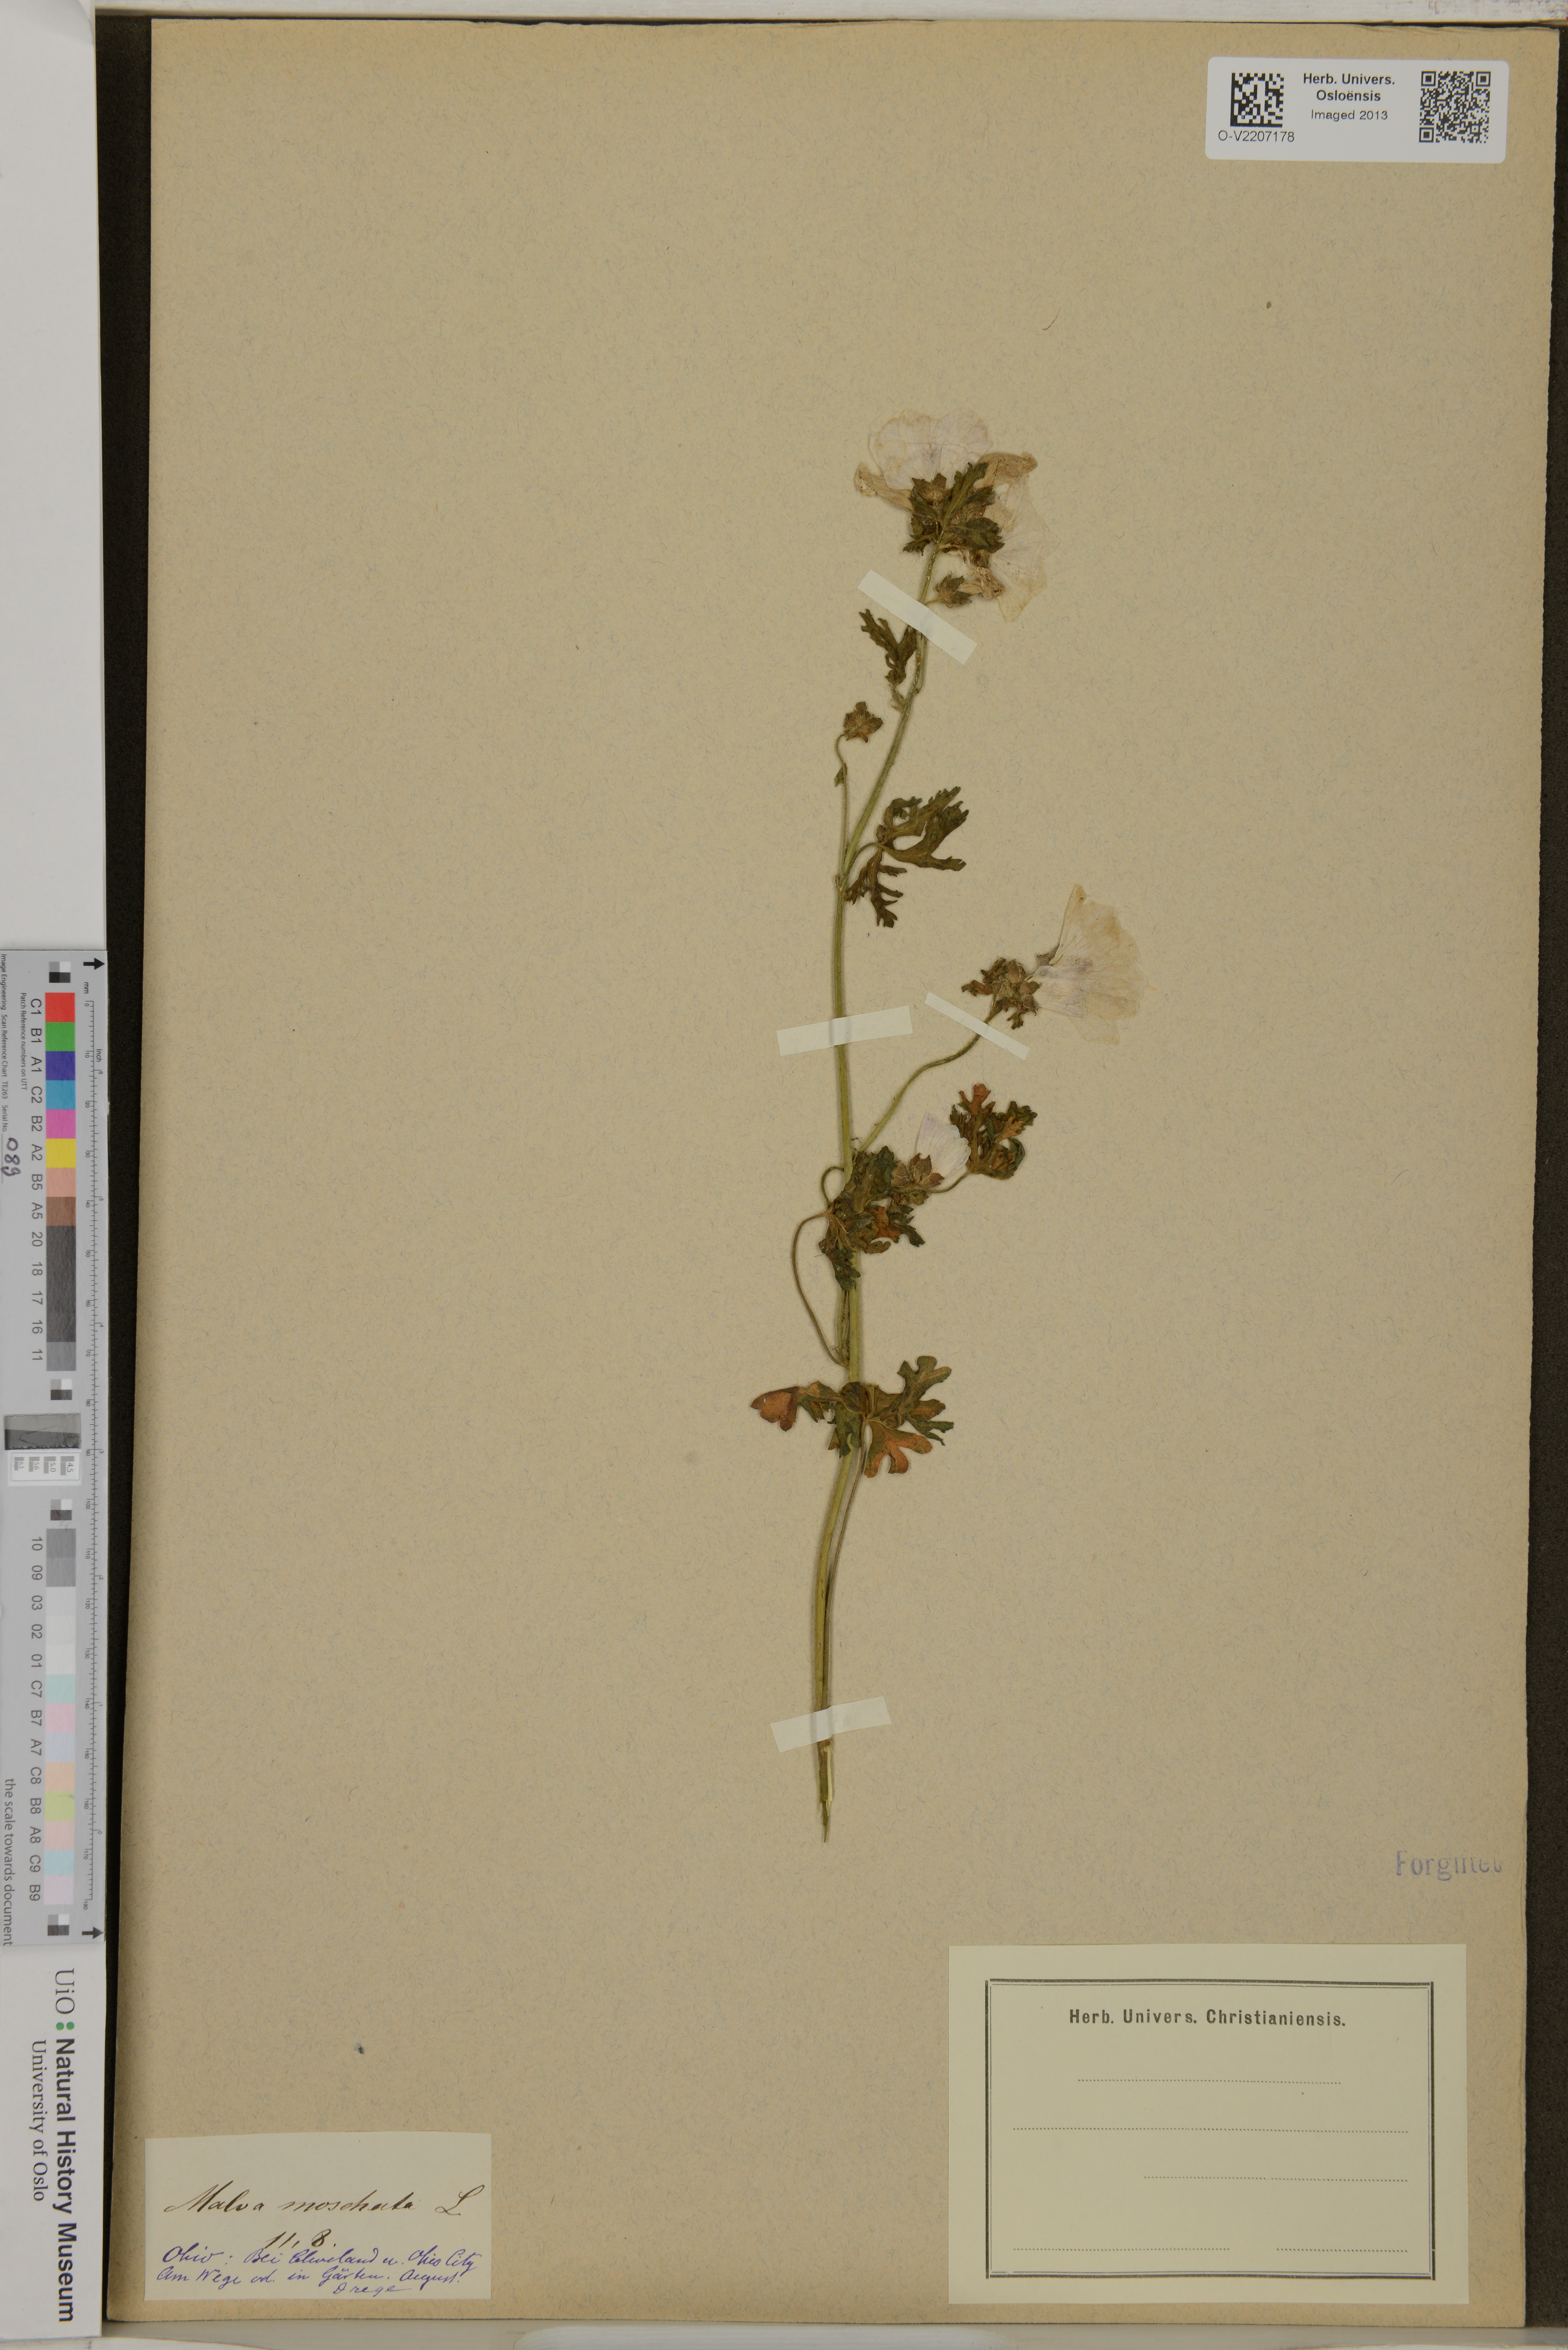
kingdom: Plantae
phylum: Tracheophyta
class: Magnoliopsida
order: Malvales
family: Malvaceae
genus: Malva
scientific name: Malva moschata
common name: Musk mallow
